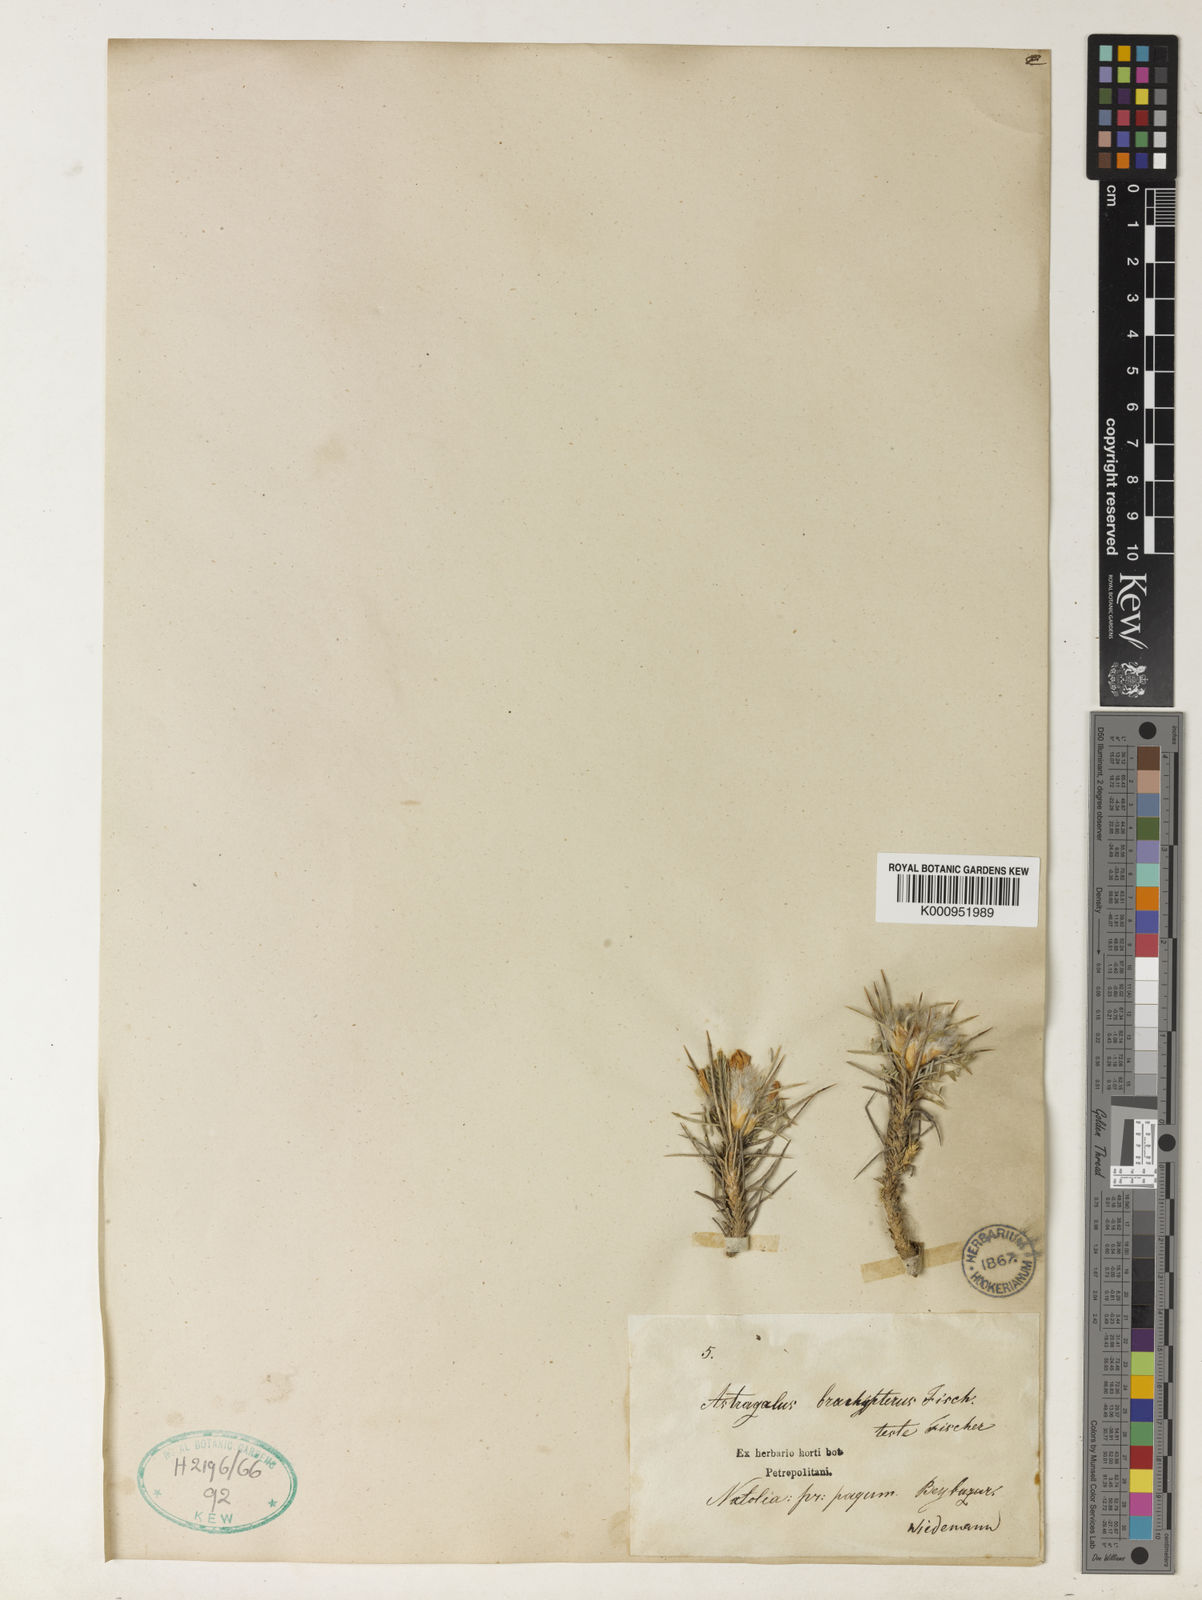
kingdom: Plantae
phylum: Tracheophyta
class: Magnoliopsida
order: Fabales
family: Fabaceae
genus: Astragalus
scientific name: Astragalus
